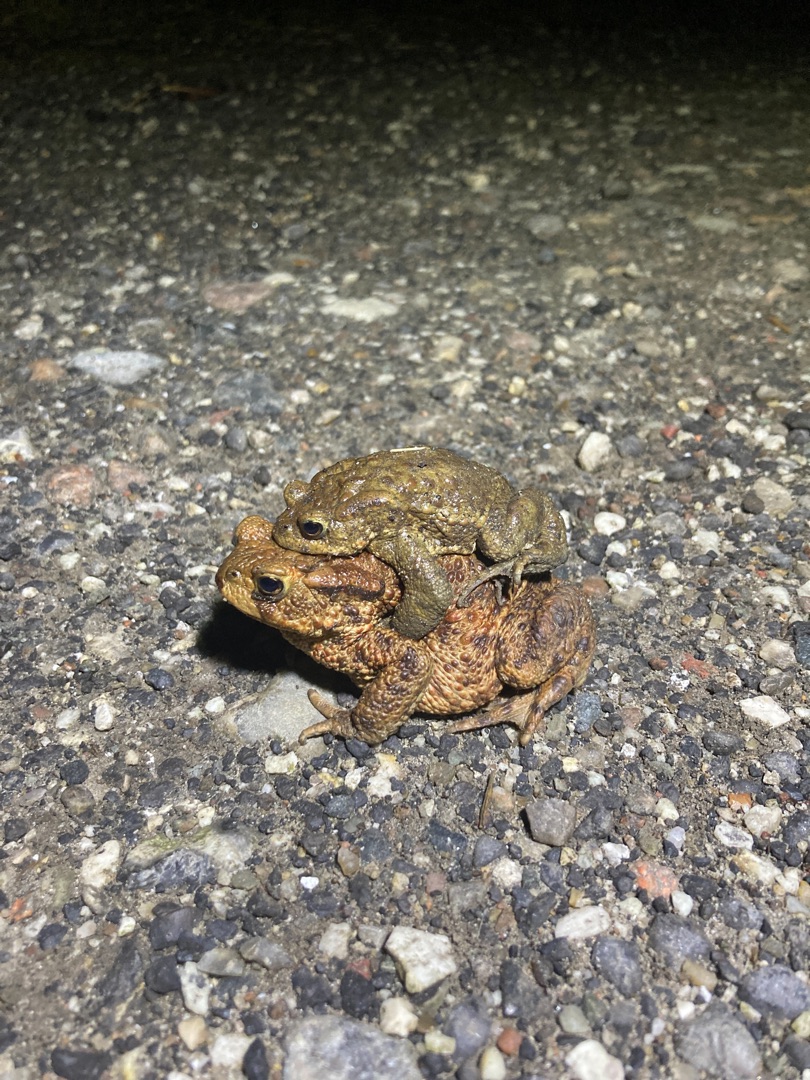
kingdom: Animalia
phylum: Chordata
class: Amphibia
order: Anura
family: Bufonidae
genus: Bufo
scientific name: Bufo bufo
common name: Skrubtudse
